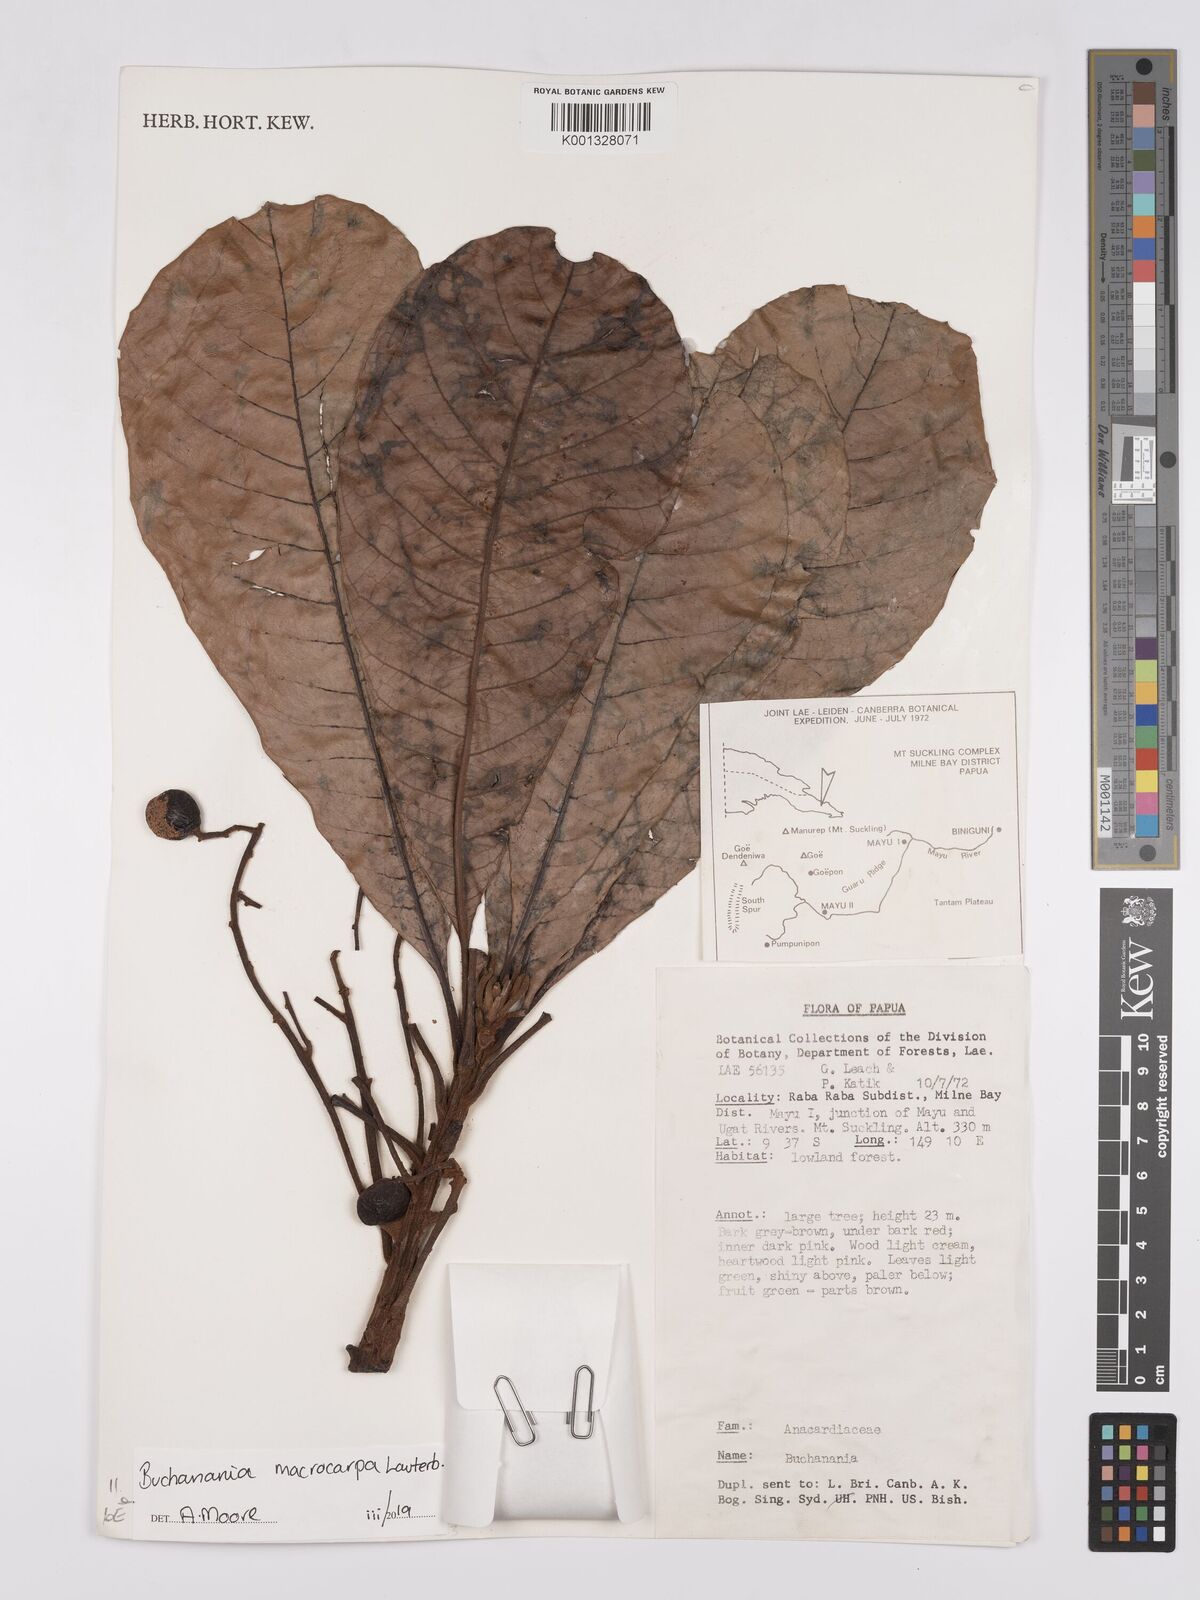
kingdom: Plantae
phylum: Tracheophyta
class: Magnoliopsida
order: Sapindales
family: Anacardiaceae
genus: Buchanania
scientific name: Buchanania macrocarpa
